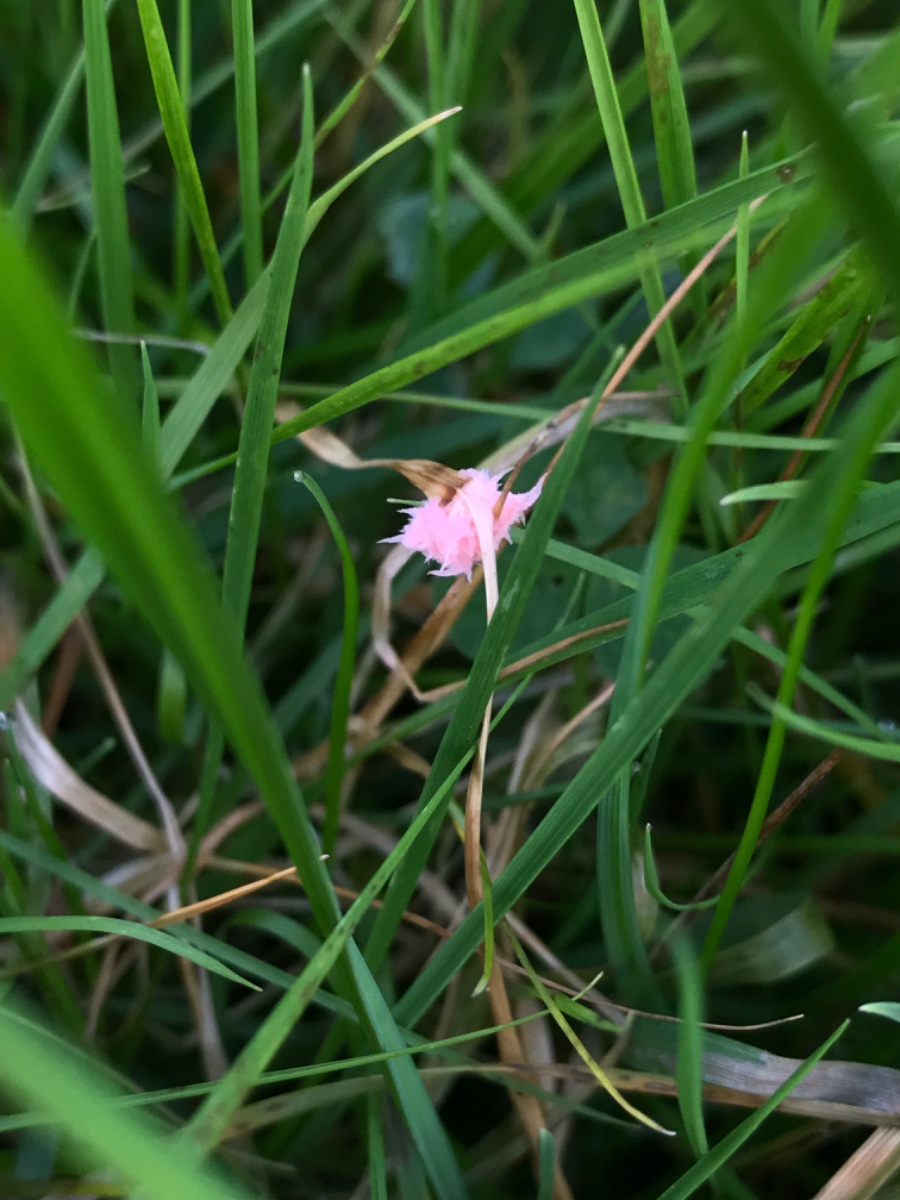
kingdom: Fungi
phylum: Basidiomycota
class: Agaricomycetes
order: Corticiales
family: Corticiaceae
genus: Laetisaria
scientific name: Laetisaria
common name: rødtråd
